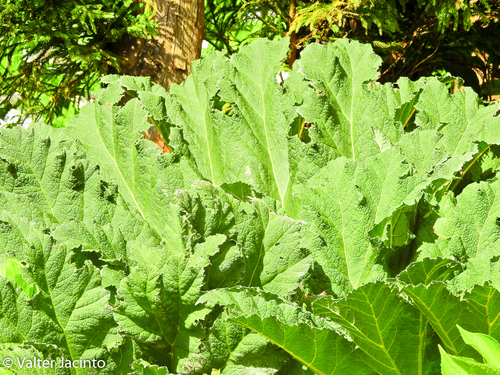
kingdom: Plantae
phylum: Tracheophyta
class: Magnoliopsida
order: Gunnerales
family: Gunneraceae
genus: Gunnera
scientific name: Gunnera tinctoria
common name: Giant-rhubarb
